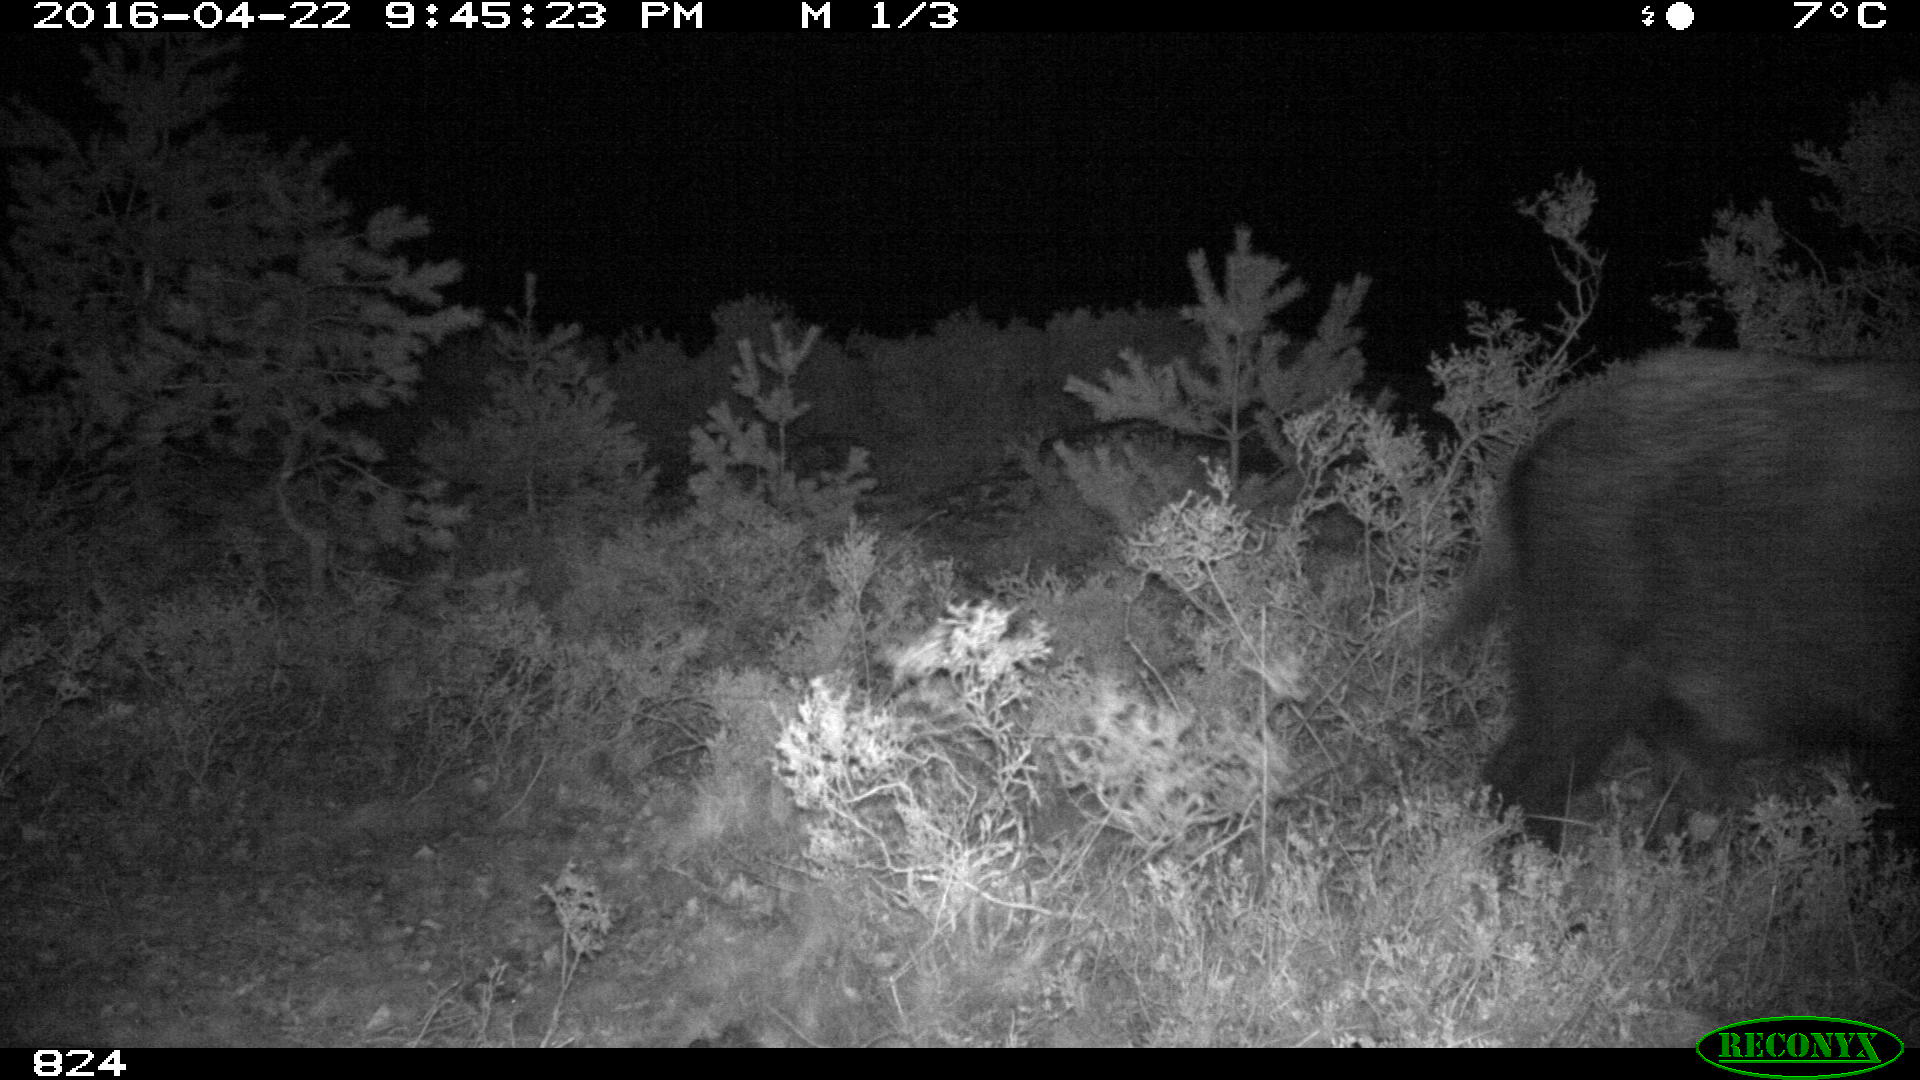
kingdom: Animalia
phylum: Chordata
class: Mammalia
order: Artiodactyla
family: Suidae
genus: Sus
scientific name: Sus scrofa
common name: Wild boar
